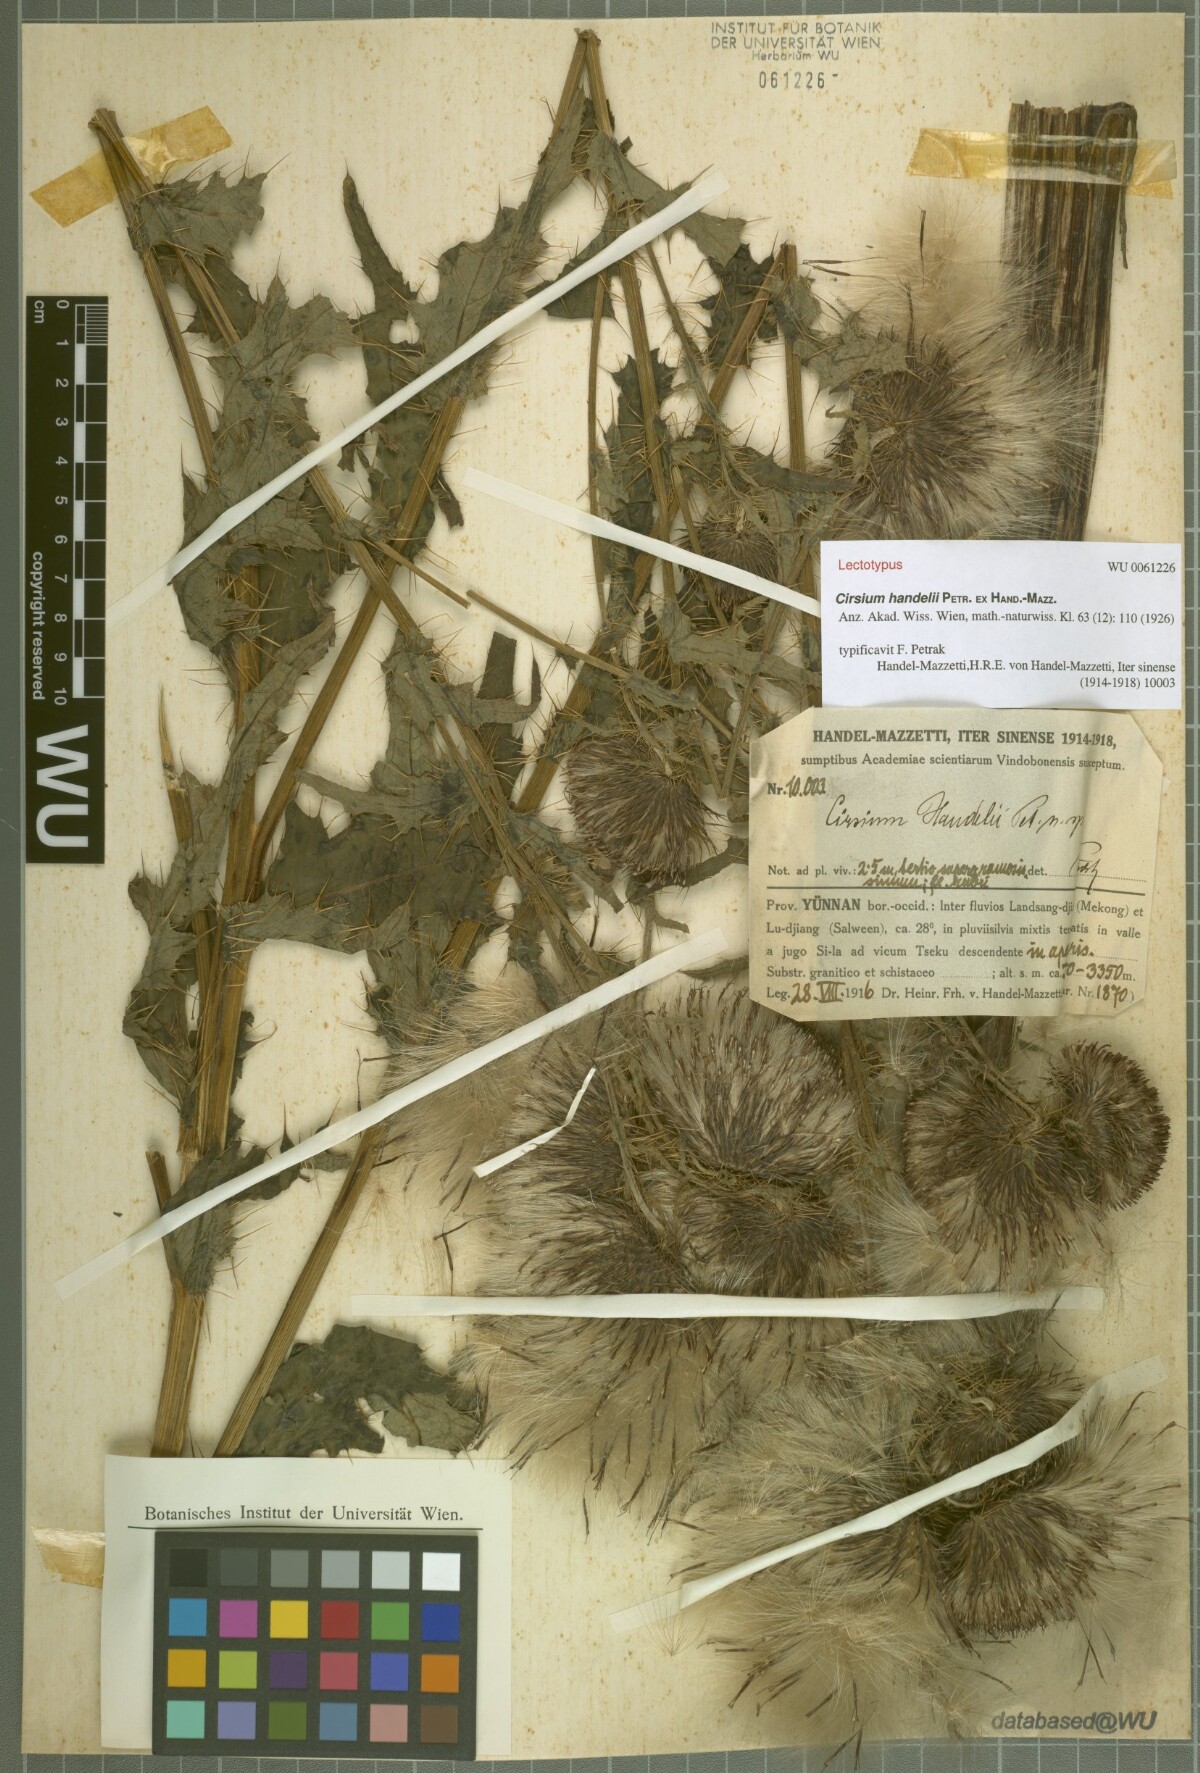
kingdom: Plantae
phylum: Tracheophyta
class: Magnoliopsida
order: Asterales
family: Asteraceae
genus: Cirsium
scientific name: Cirsium handelii
